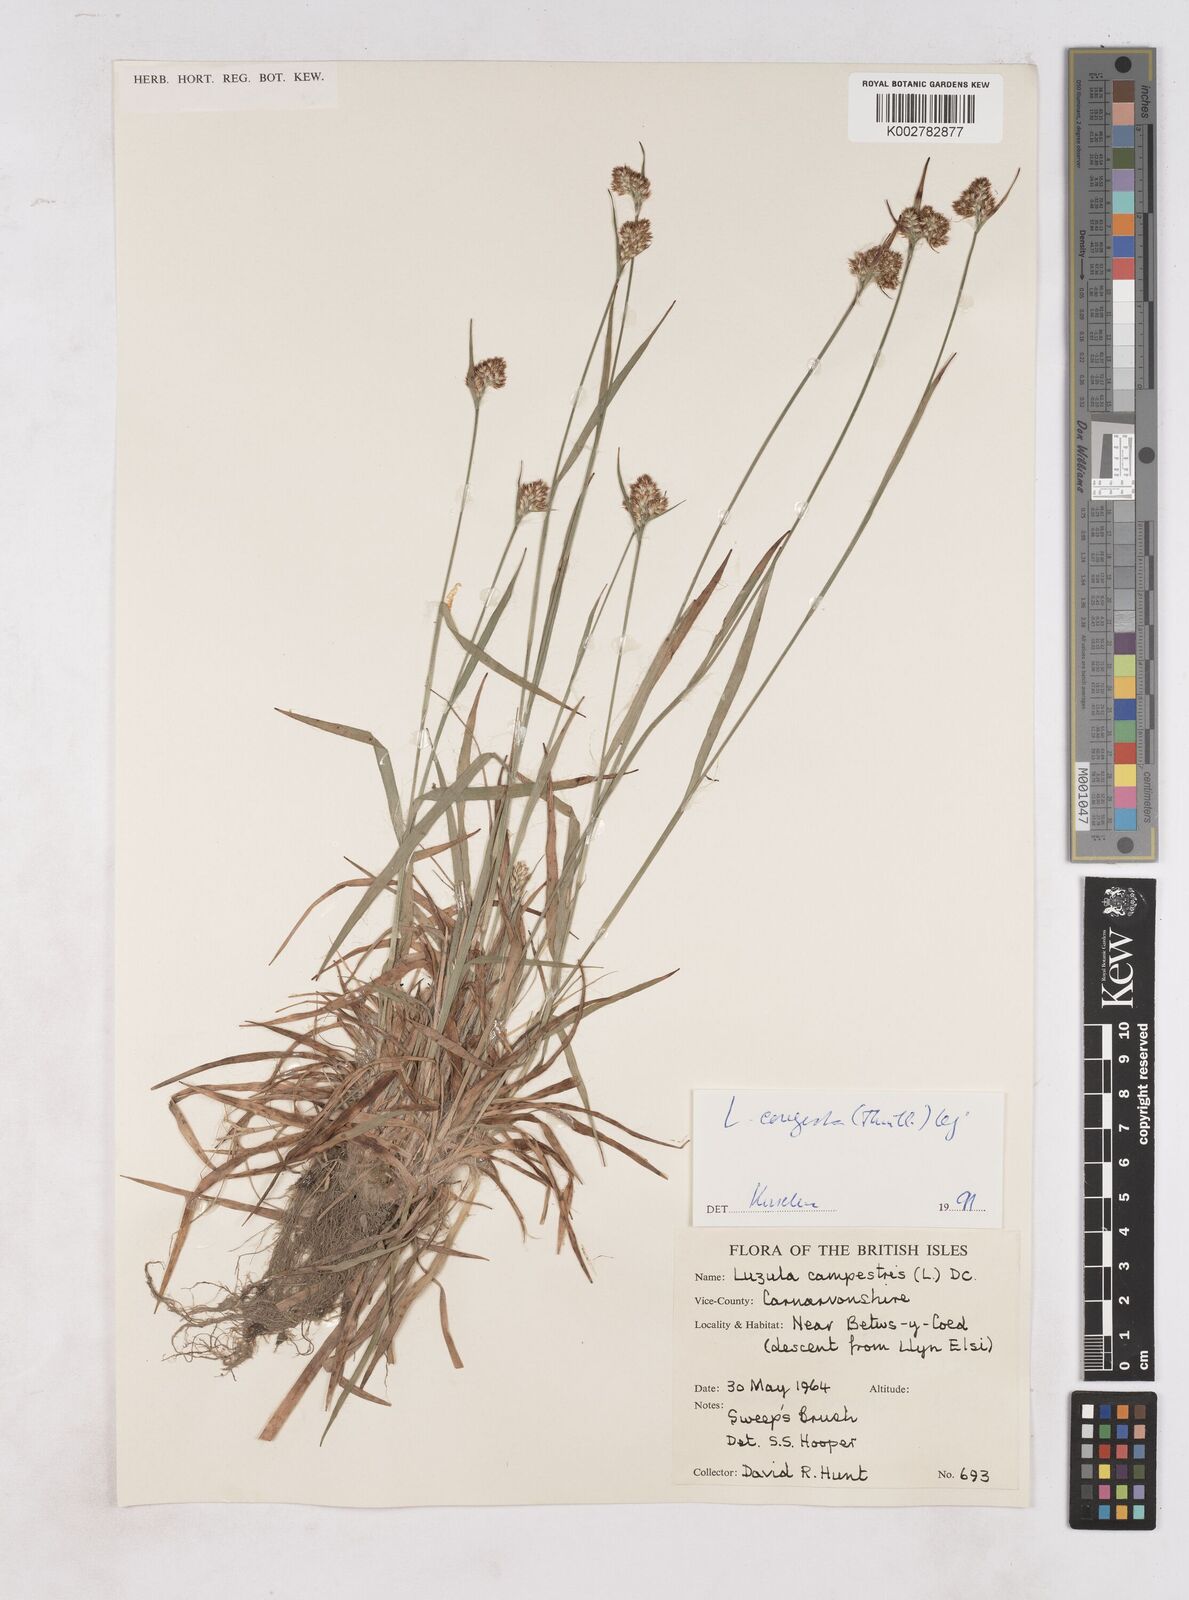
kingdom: Plantae
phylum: Tracheophyta
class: Liliopsida
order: Poales
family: Juncaceae
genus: Luzula
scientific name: Luzula campestris
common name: Field wood-rush
